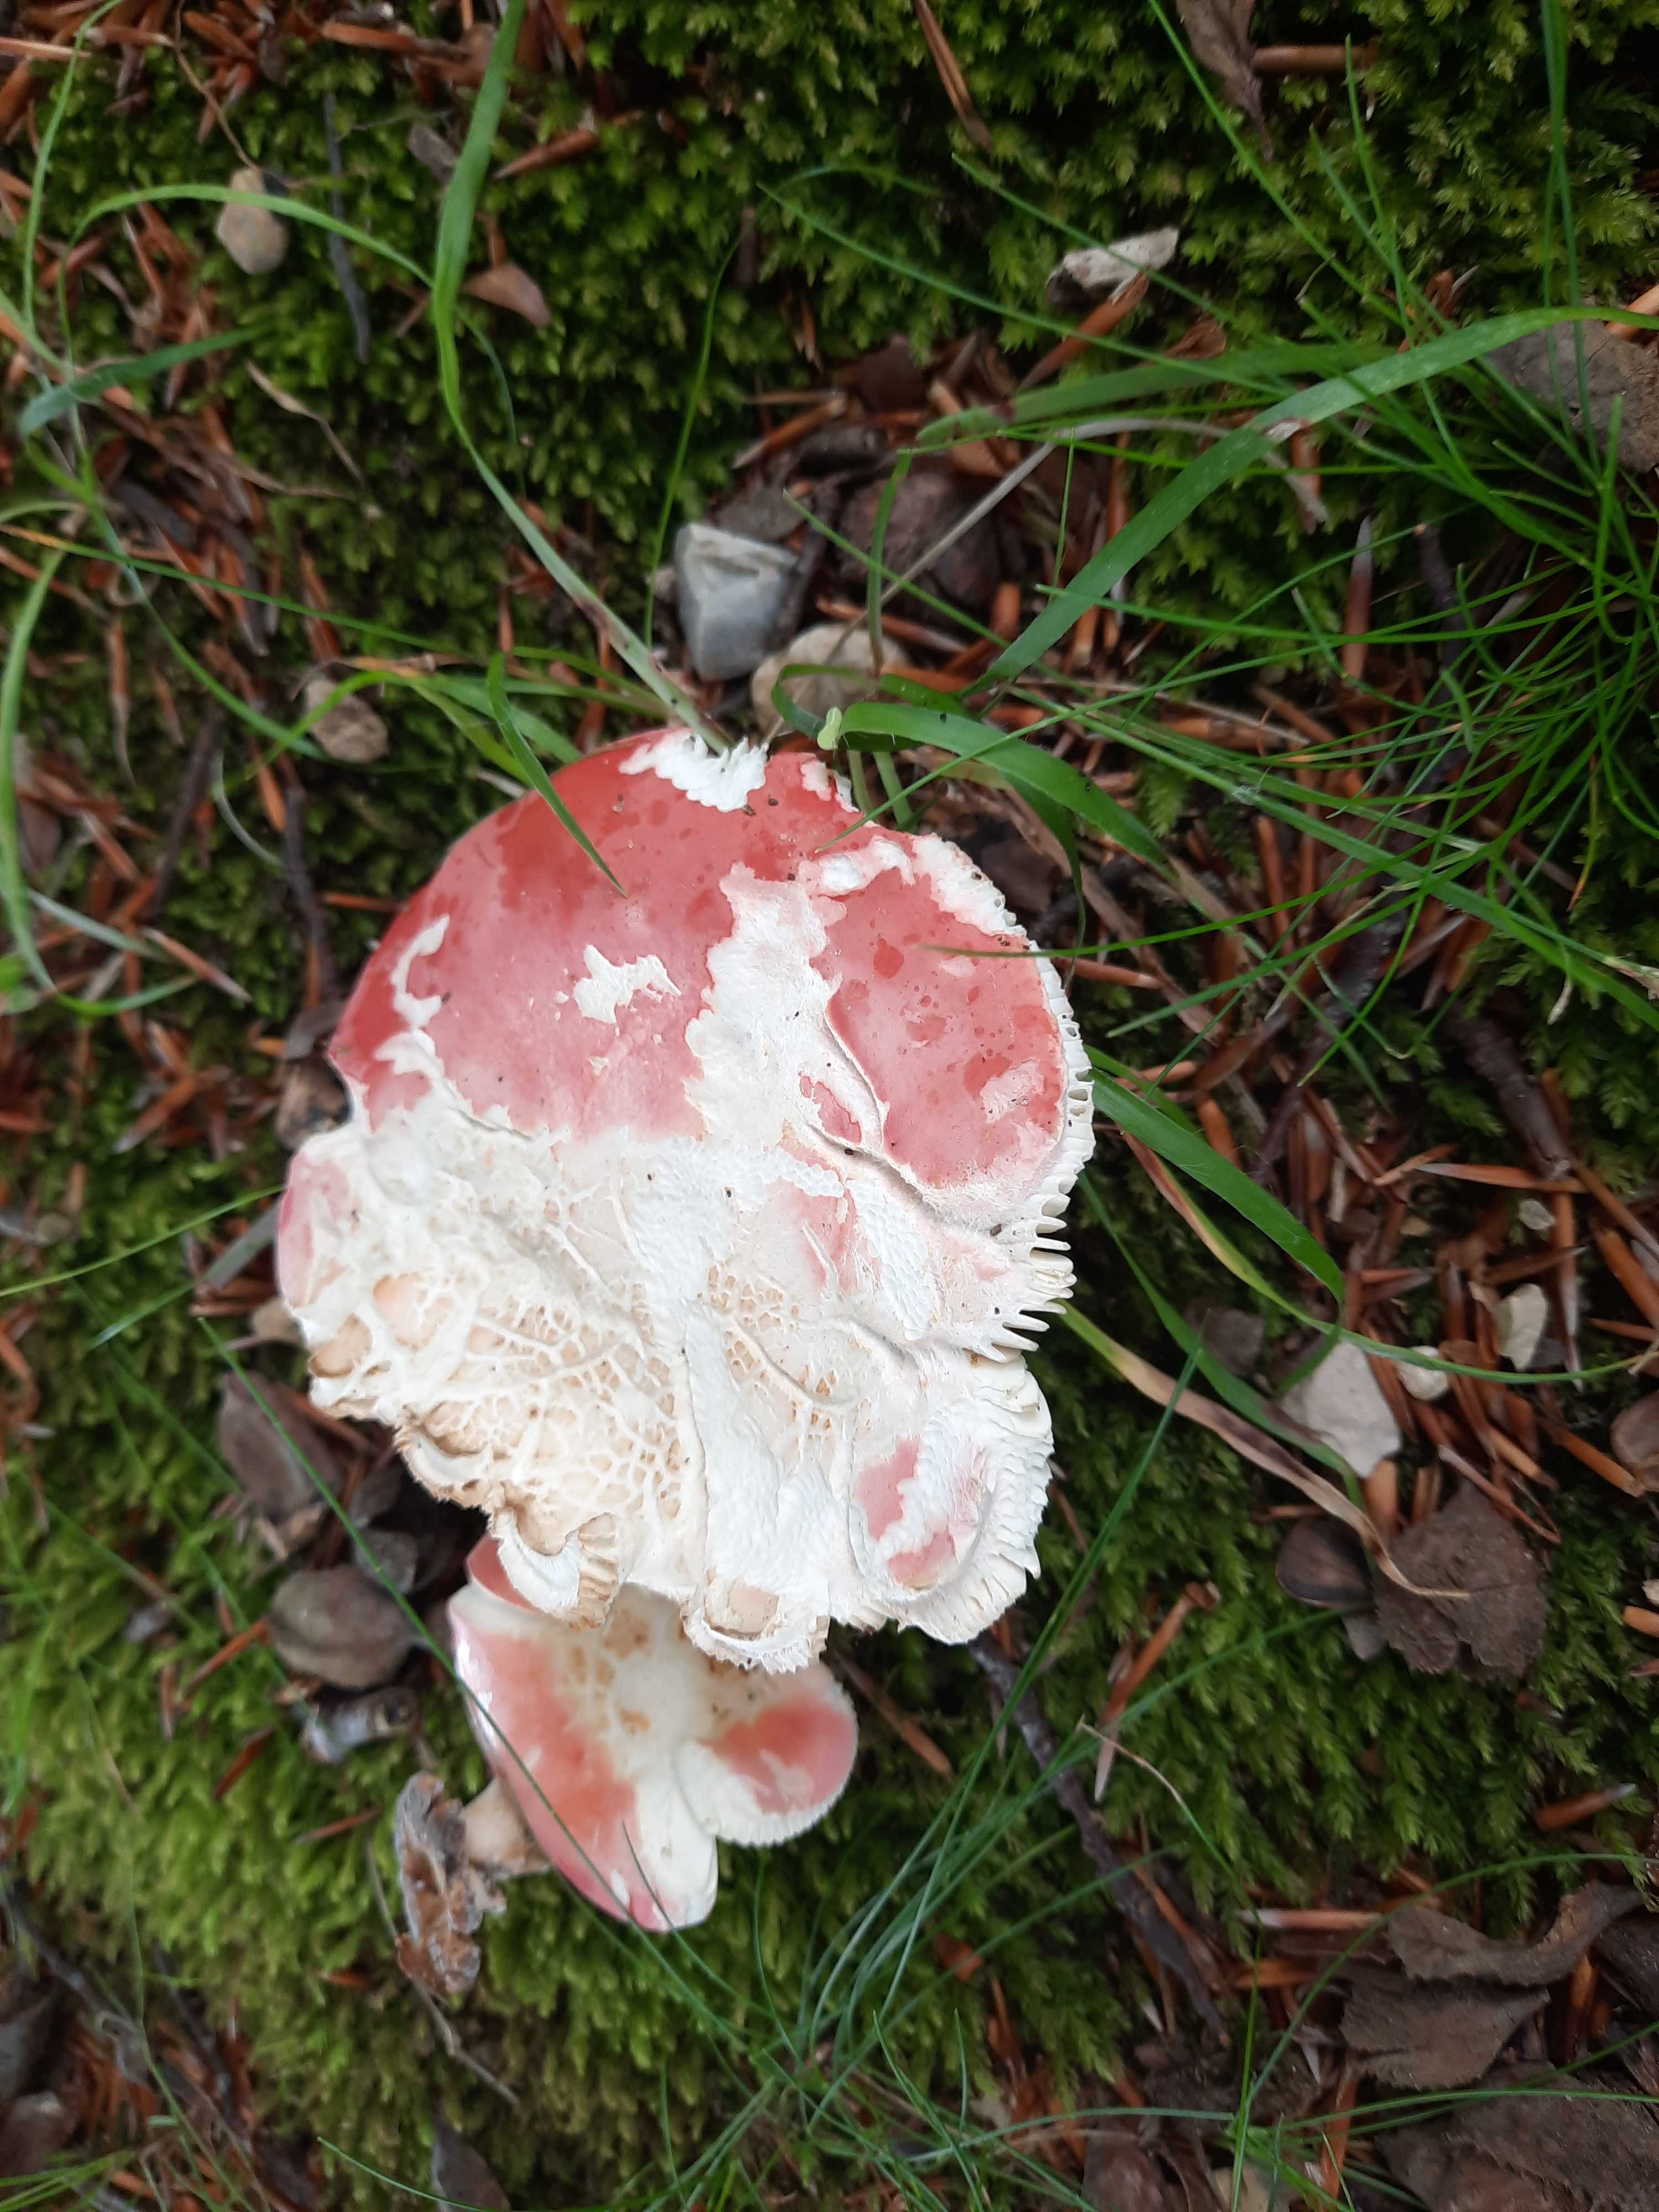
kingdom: Fungi
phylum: Basidiomycota
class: Agaricomycetes
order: Russulales
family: Russulaceae
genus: Russula
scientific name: Russula rosea
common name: fastkødet skørhat
